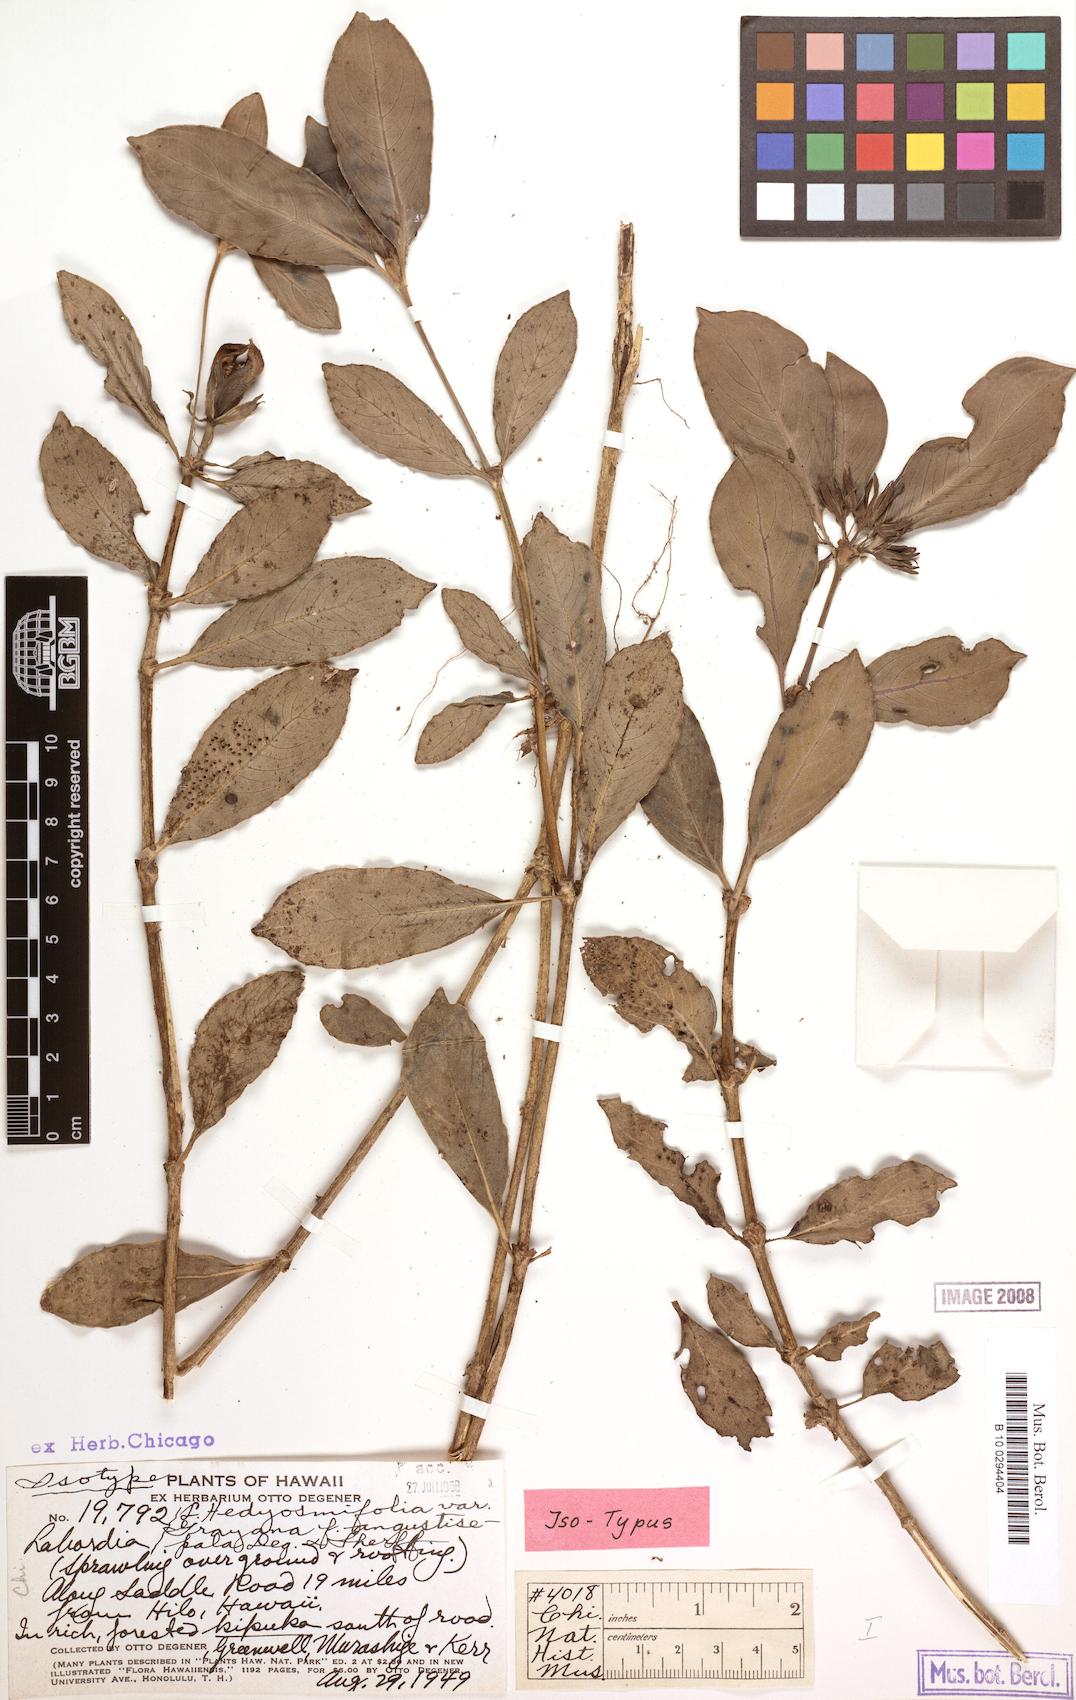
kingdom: Plantae
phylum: Tracheophyta
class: Magnoliopsida
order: Gentianales
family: Loganiaceae
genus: Geniostoma
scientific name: Geniostoma hedyosmifolium
